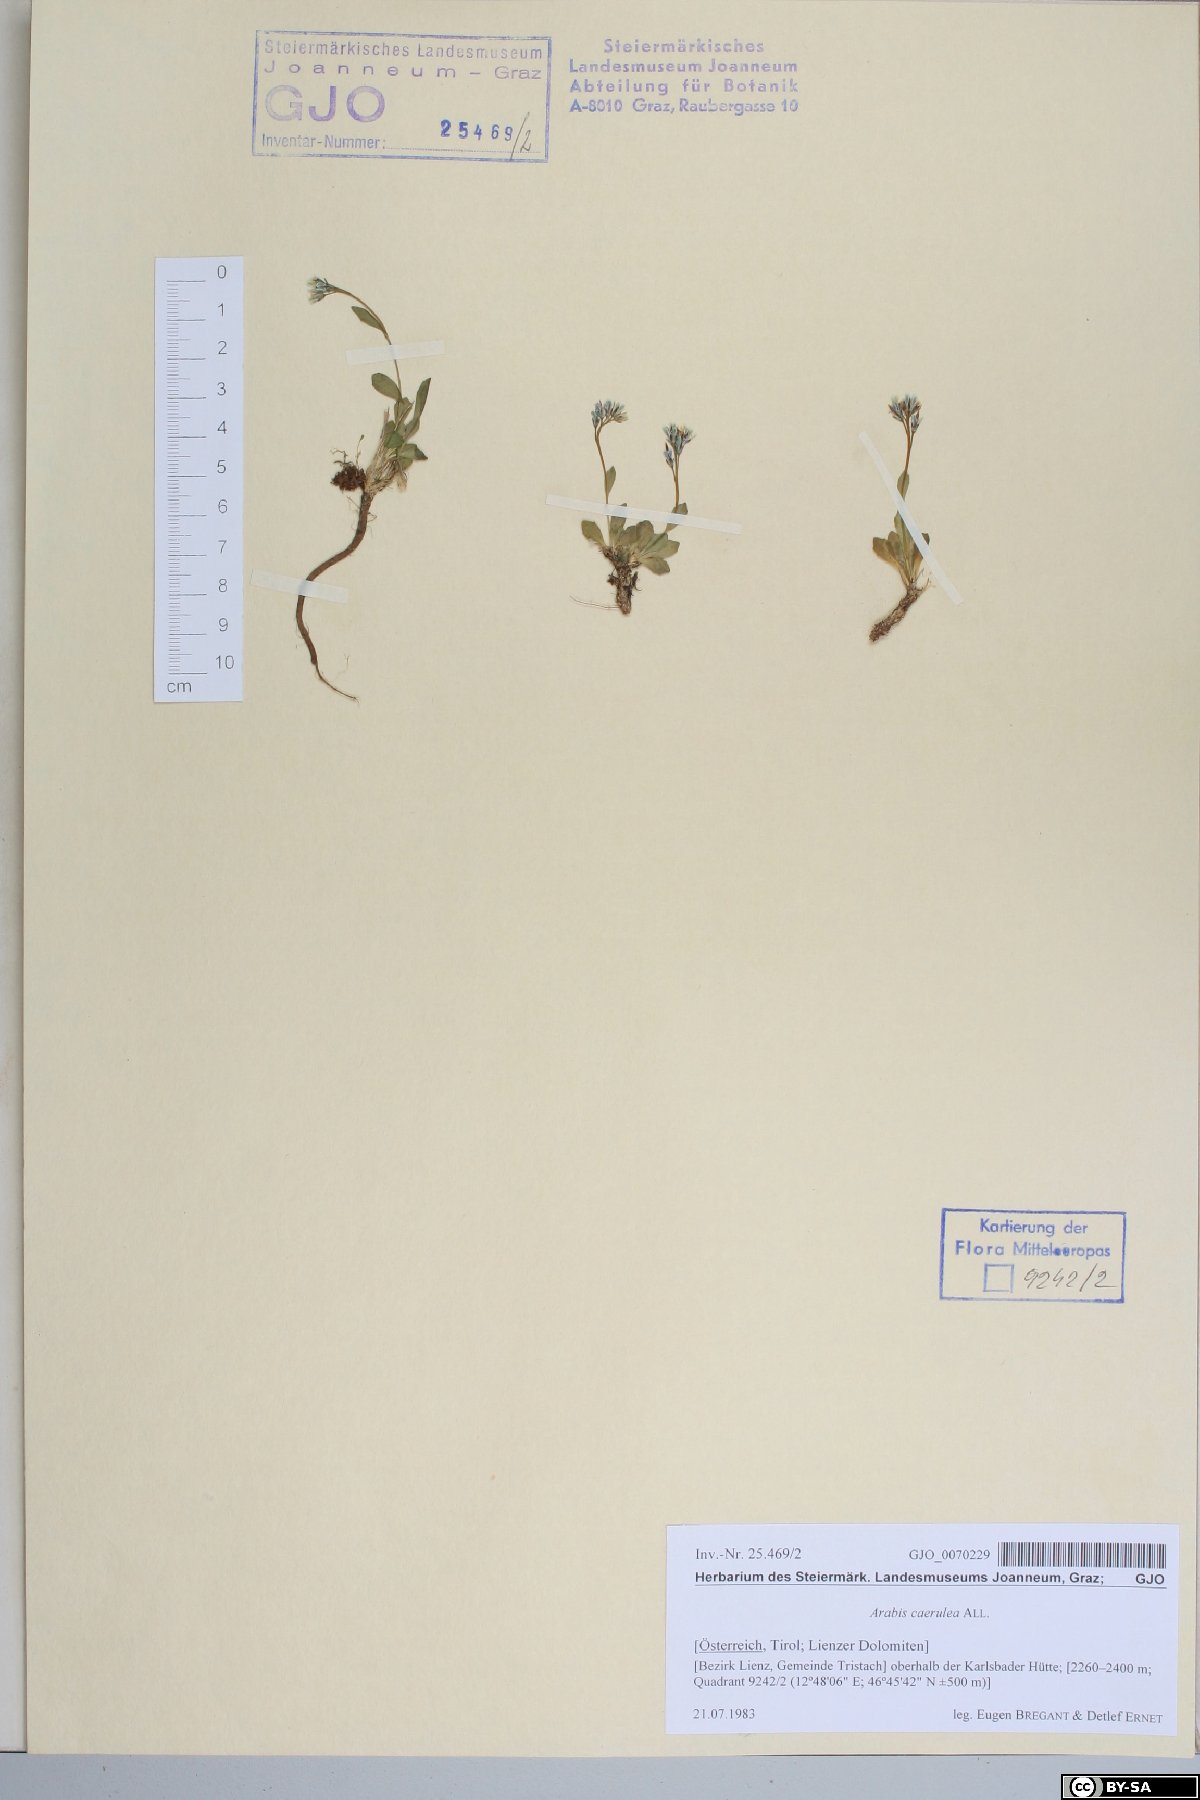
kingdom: Plantae
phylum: Tracheophyta
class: Magnoliopsida
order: Brassicales
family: Brassicaceae
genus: Arabis
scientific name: Arabis caerulea
